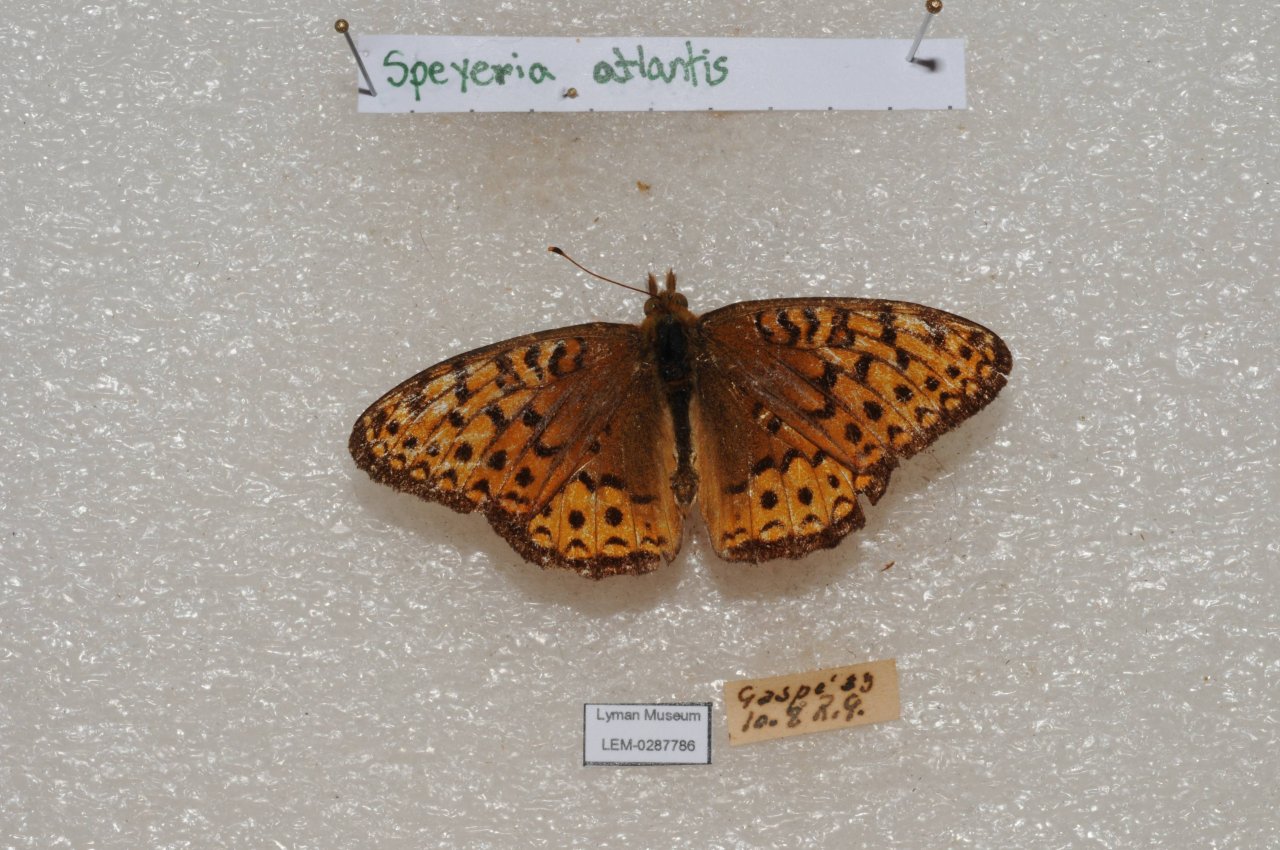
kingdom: Animalia
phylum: Arthropoda
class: Insecta
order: Lepidoptera
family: Nymphalidae
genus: Speyeria
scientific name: Speyeria atlantis
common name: Atlantis Fritillary
